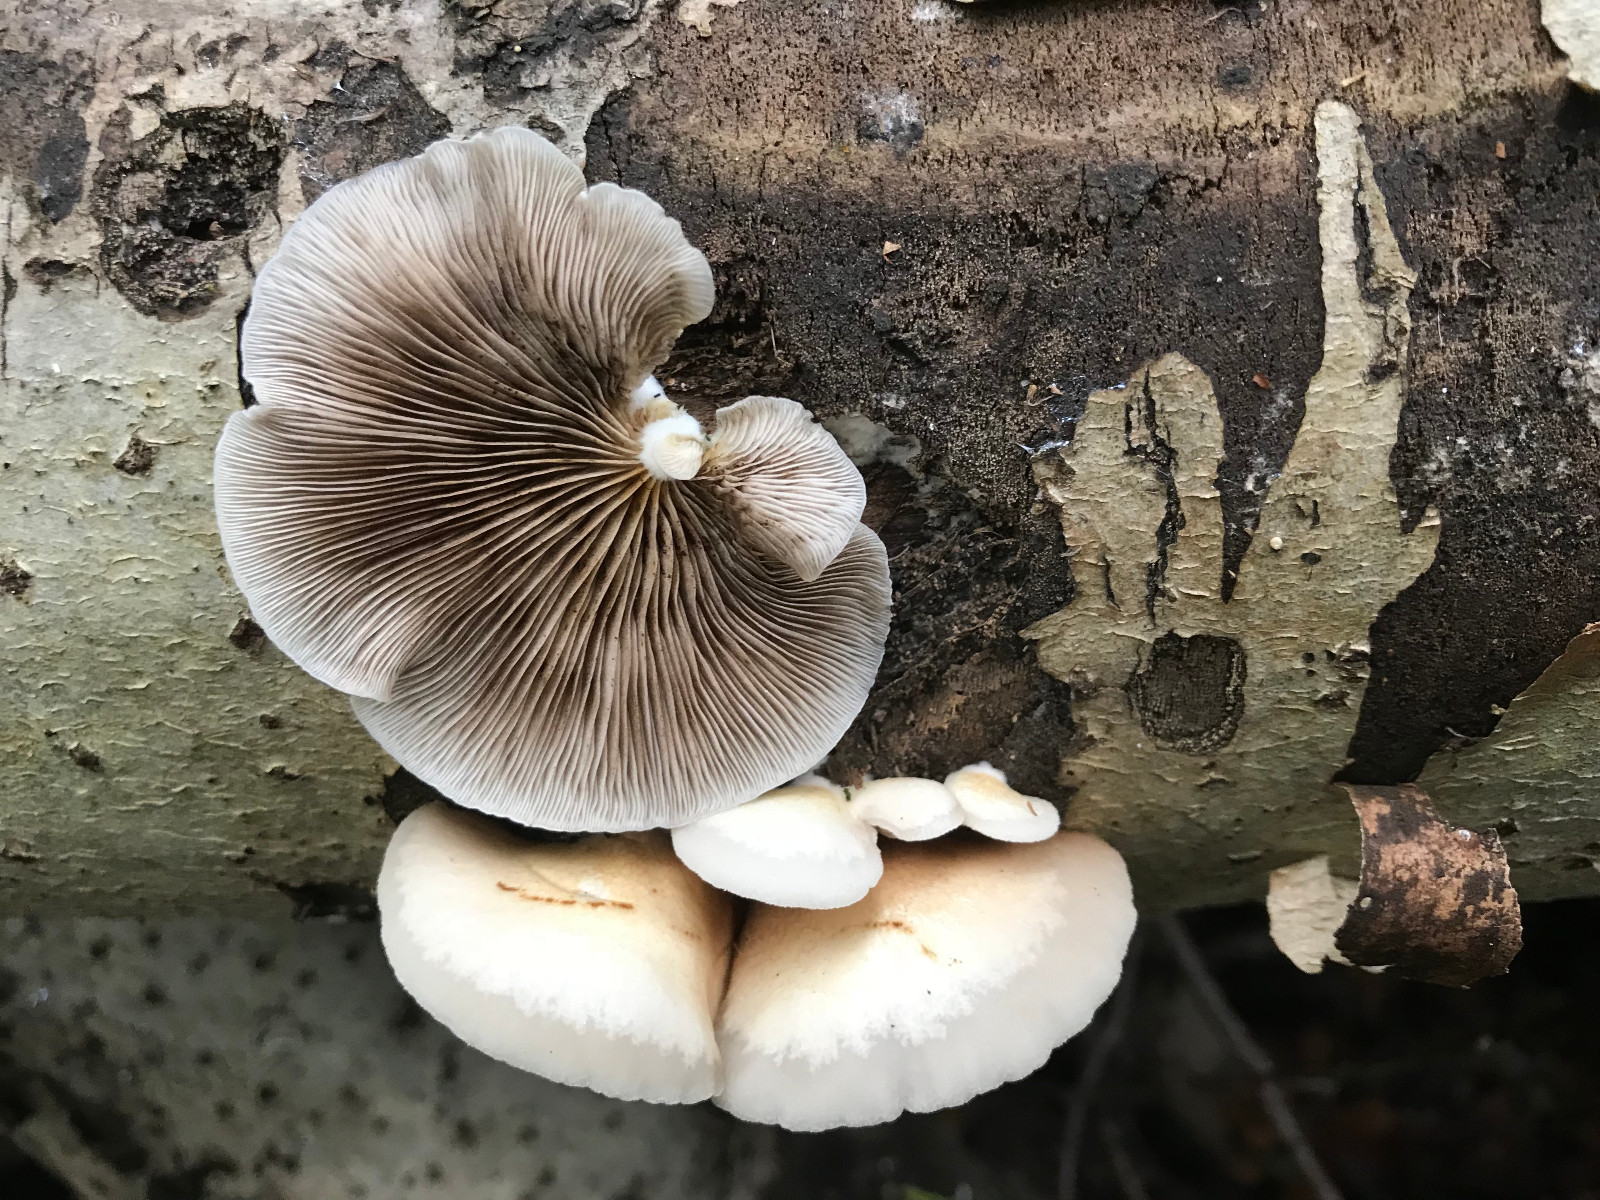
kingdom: Fungi
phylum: Basidiomycota
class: Agaricomycetes
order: Agaricales
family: Crepidotaceae
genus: Crepidotus
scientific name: Crepidotus mollis
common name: blød muslingesvamp
